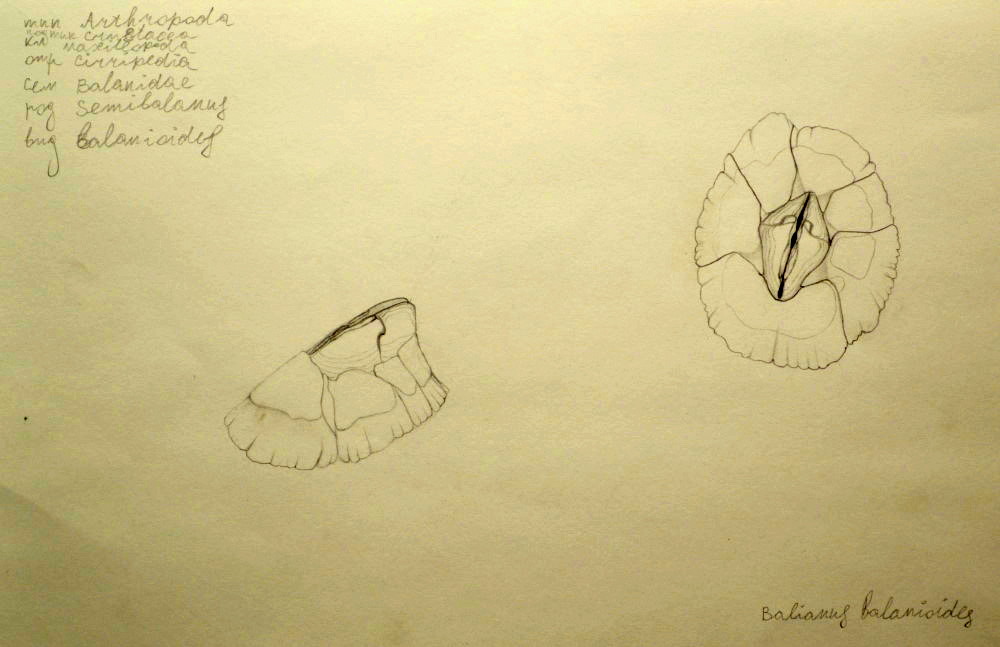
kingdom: Animalia
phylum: Arthropoda
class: Maxillopoda
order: Sessilia
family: Archaeobalanidae
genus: Semibalanus
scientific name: Semibalanus balanoides
